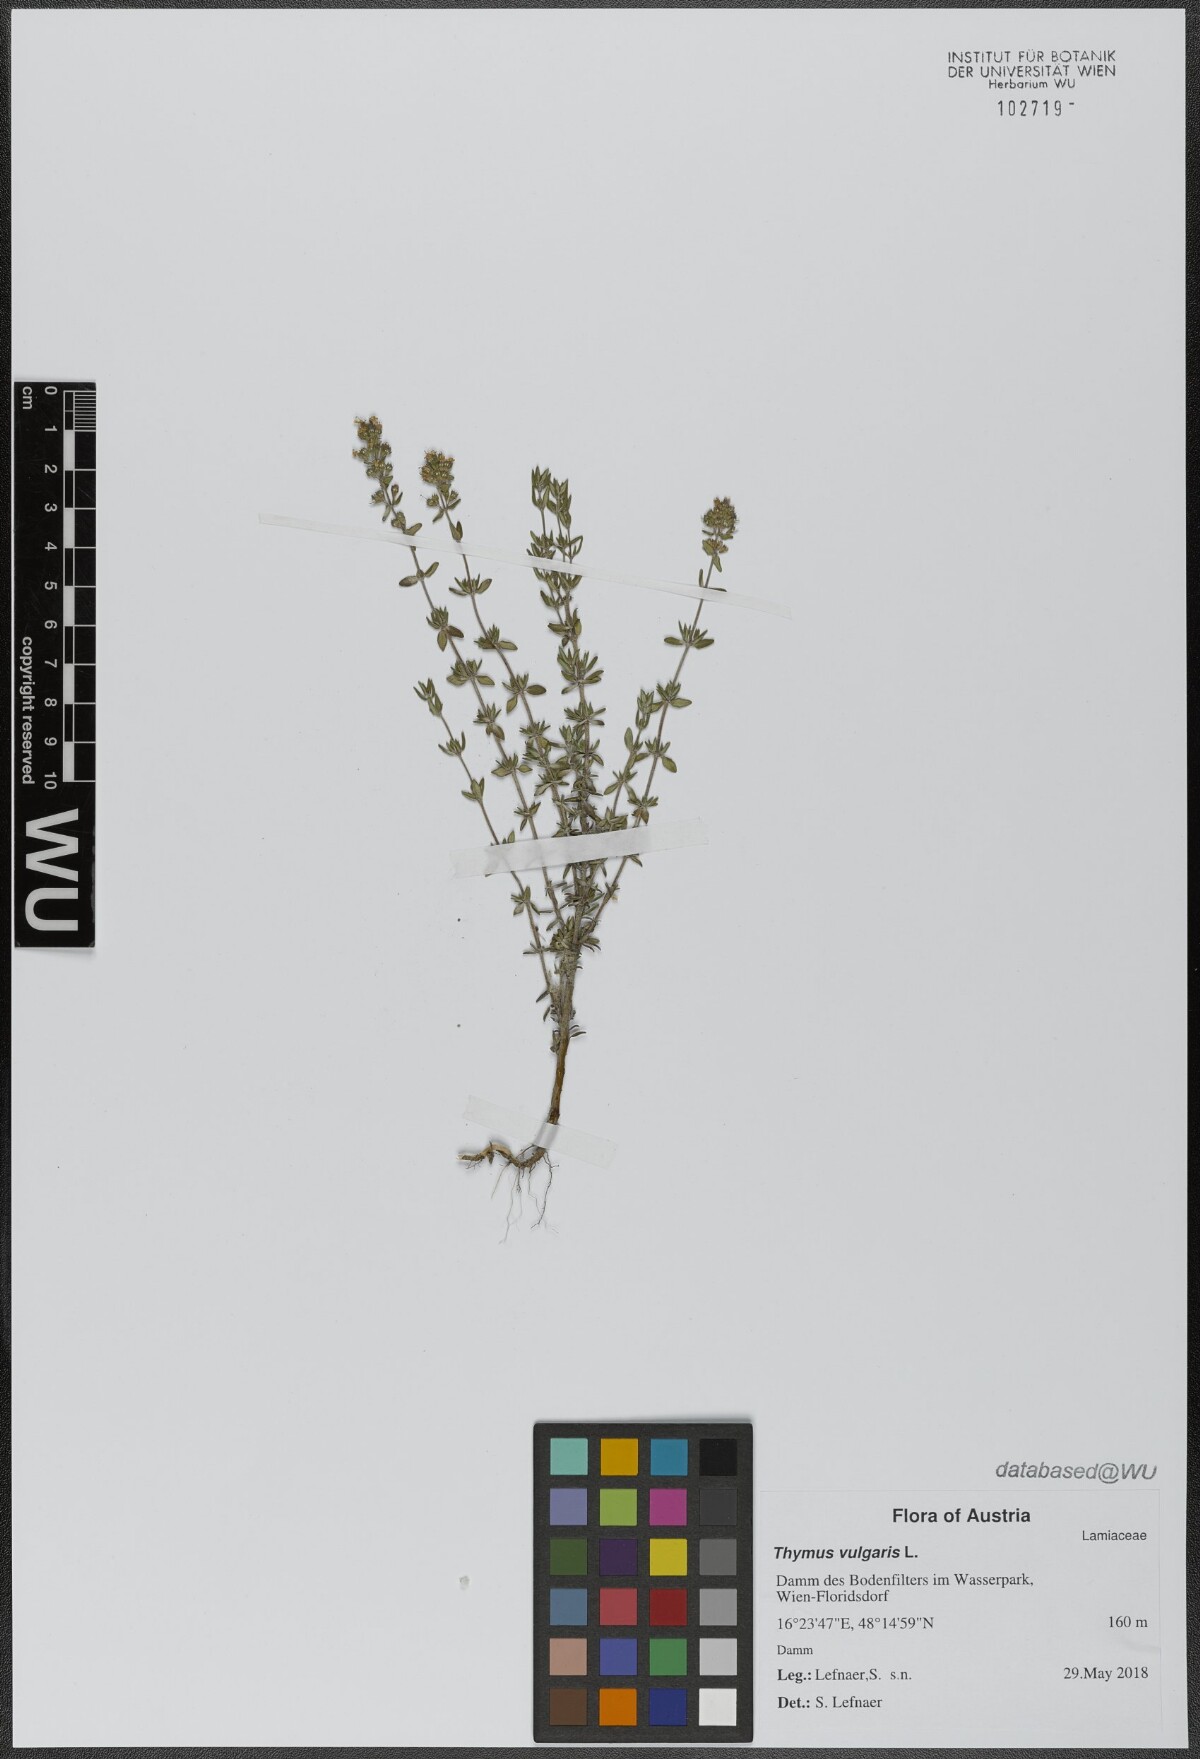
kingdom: Plantae
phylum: Tracheophyta
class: Magnoliopsida
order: Lamiales
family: Lamiaceae
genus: Thymus
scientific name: Thymus vulgaris
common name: Garden thyme
